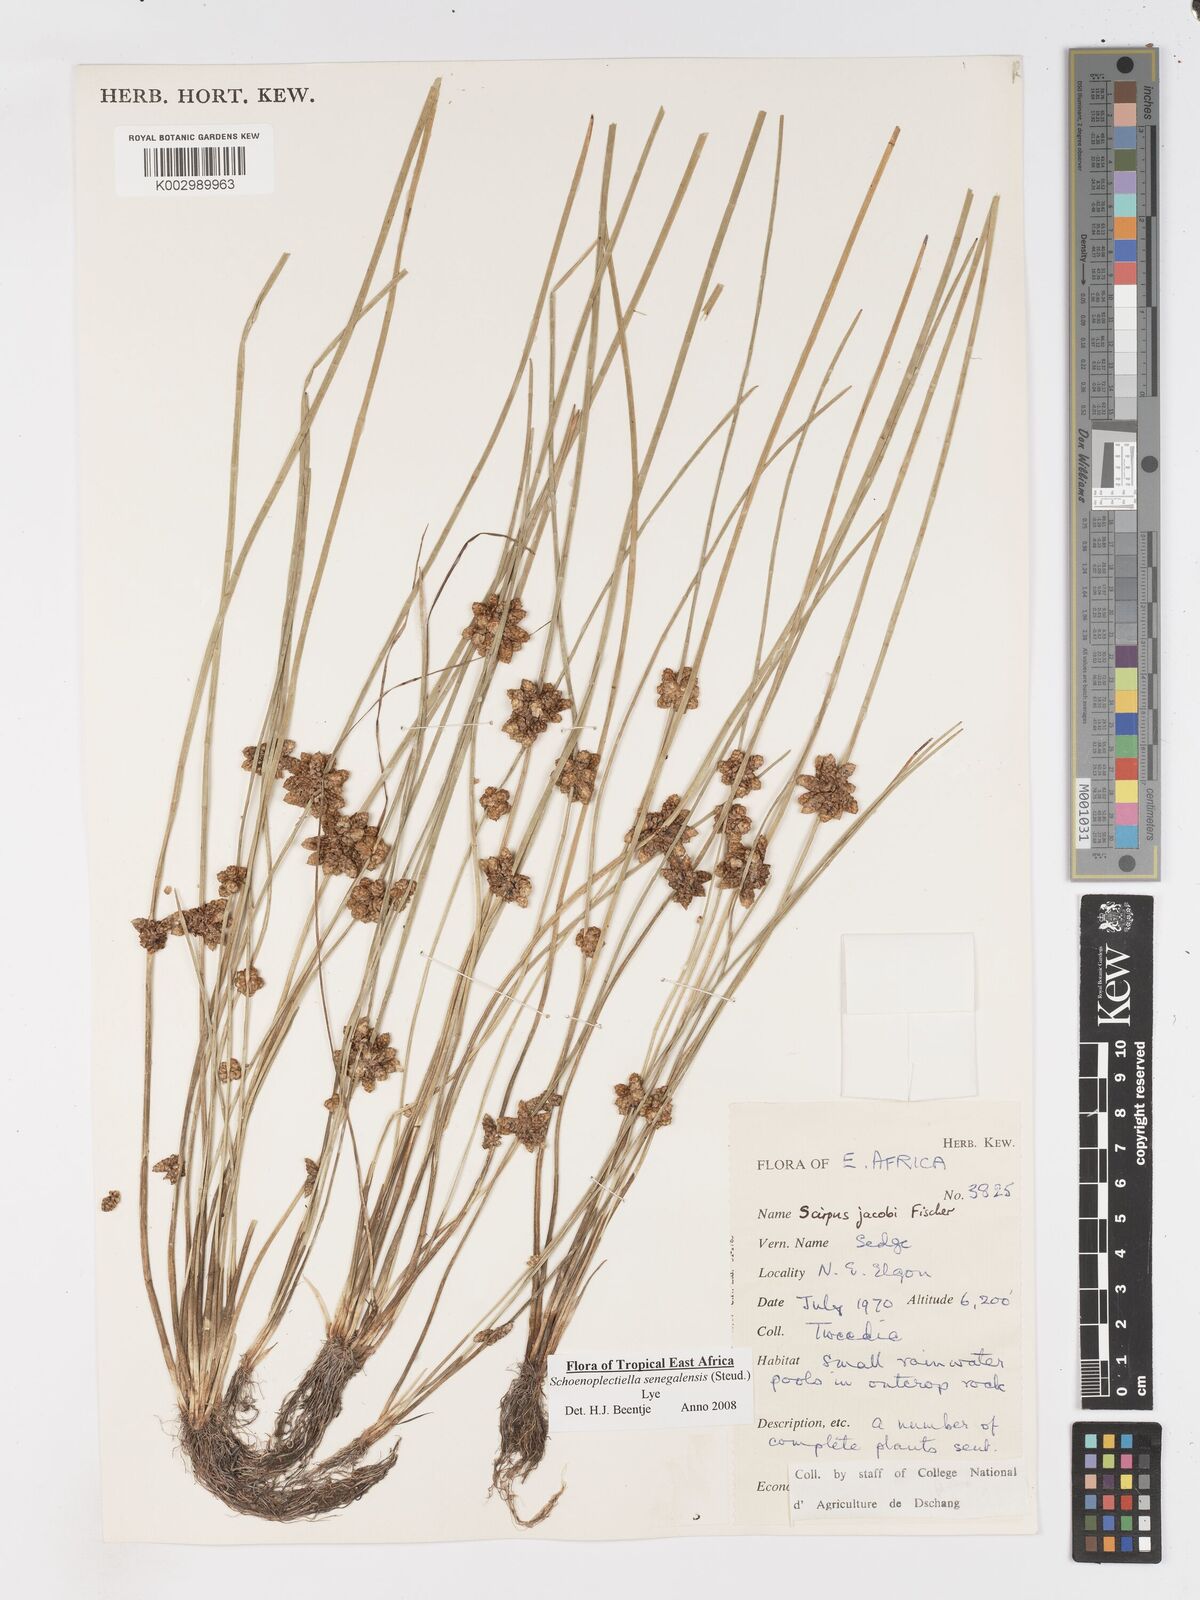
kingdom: Plantae
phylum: Tracheophyta
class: Liliopsida
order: Poales
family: Cyperaceae
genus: Schoenoplectiella
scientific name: Schoenoplectiella senegalensis
